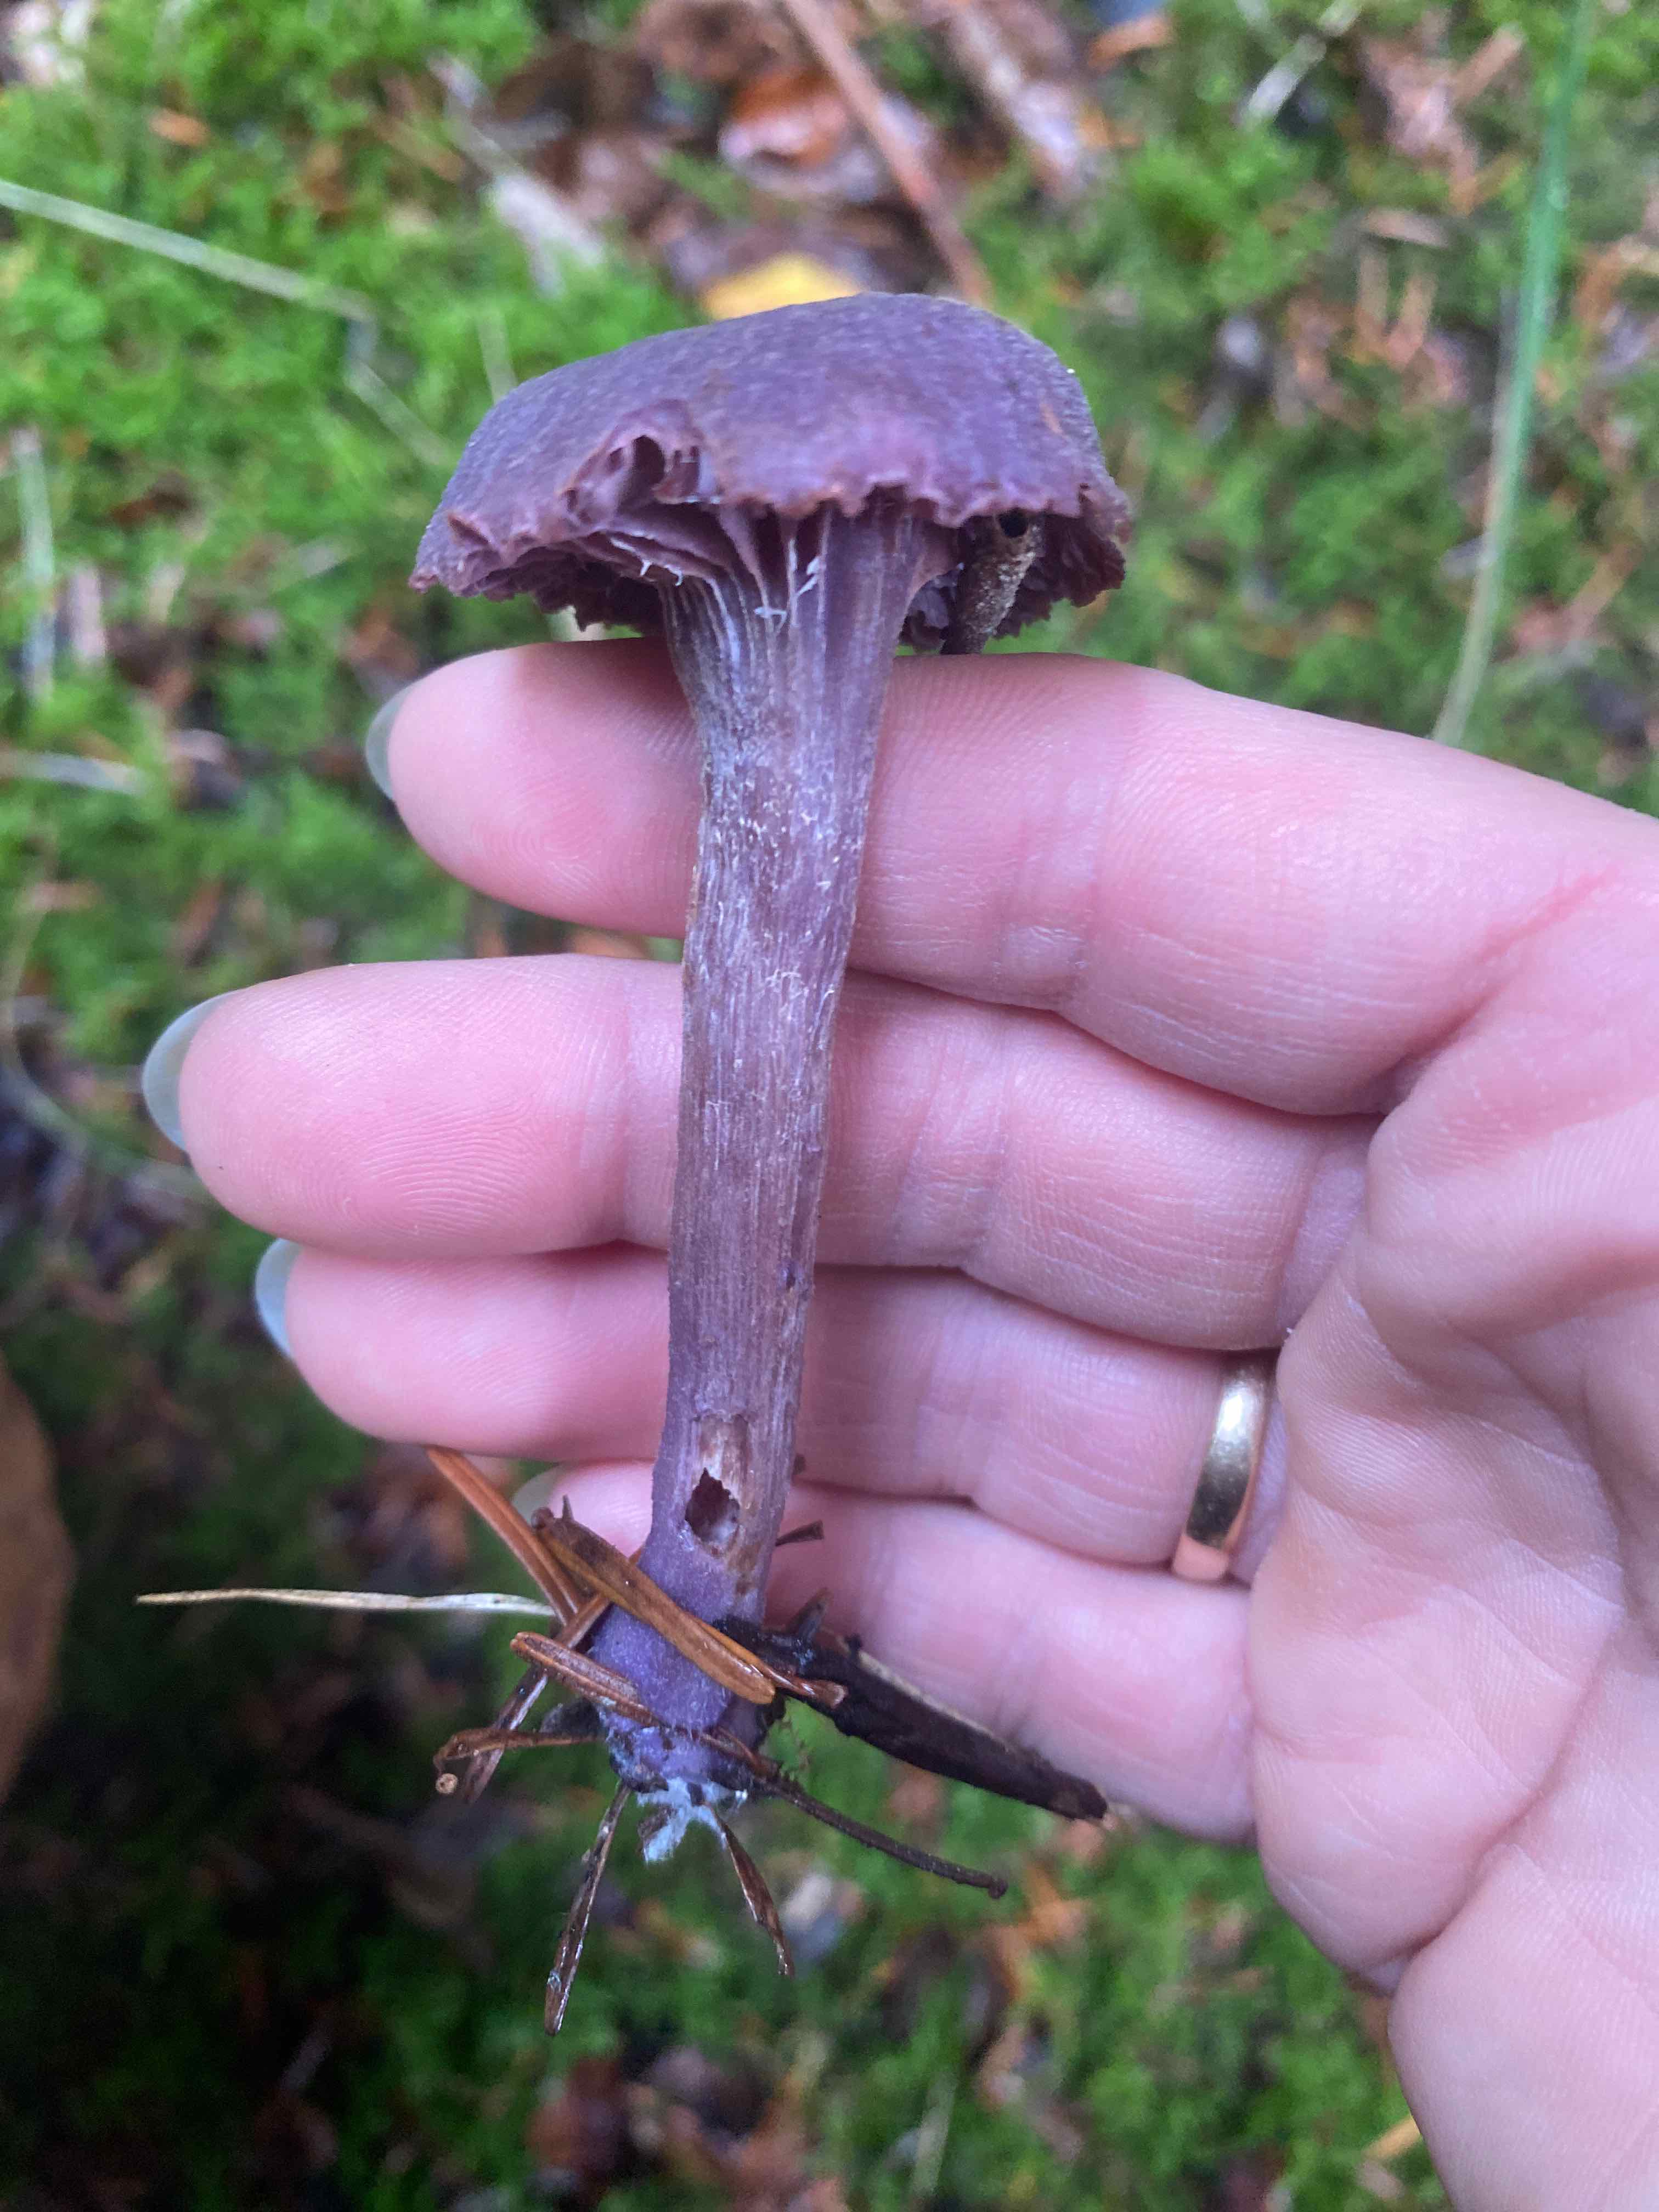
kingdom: Fungi
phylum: Basidiomycota
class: Agaricomycetes
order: Agaricales
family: Hydnangiaceae
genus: Laccaria
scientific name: Laccaria amethystina
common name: violet ametysthat
